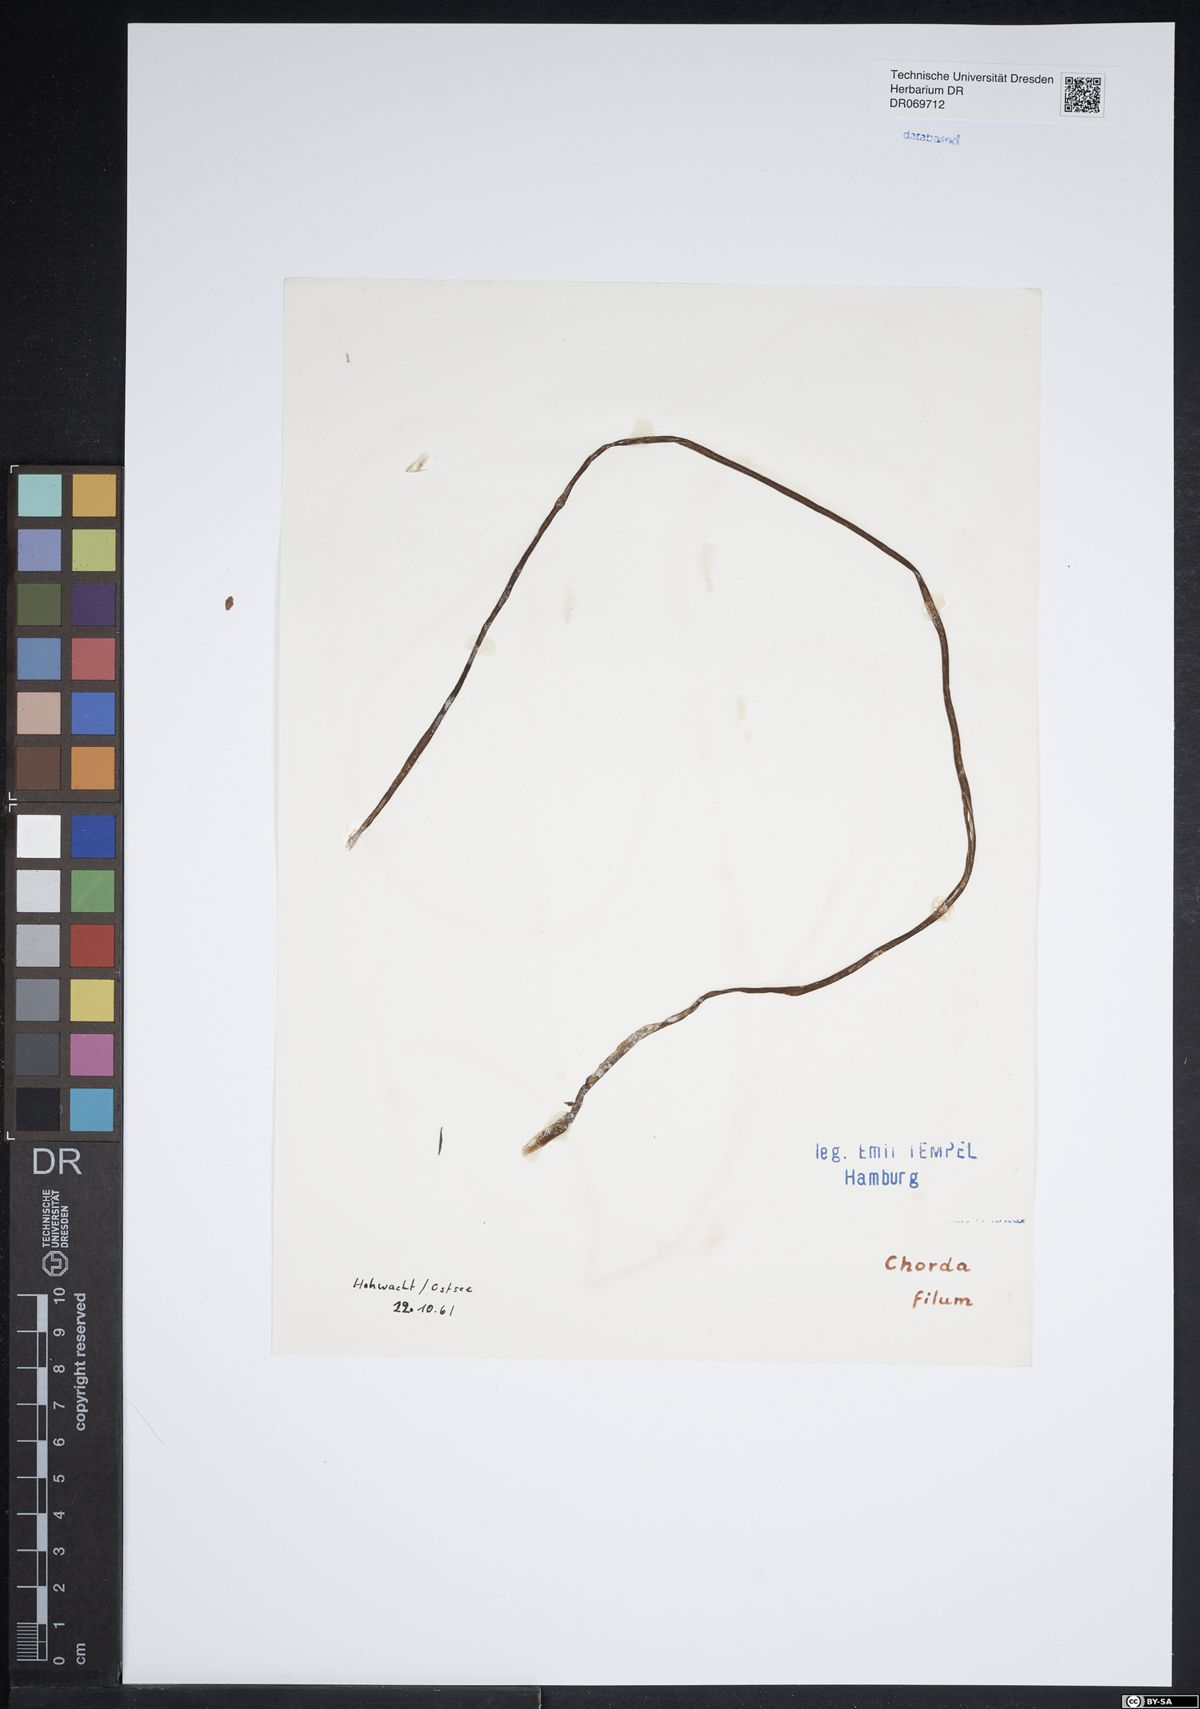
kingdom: Chromista
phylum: Ochrophyta
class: Phaeophyceae
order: Laminariales
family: Chordaceae
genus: Chorda
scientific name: Chorda filum
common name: Mermaid's tresses
